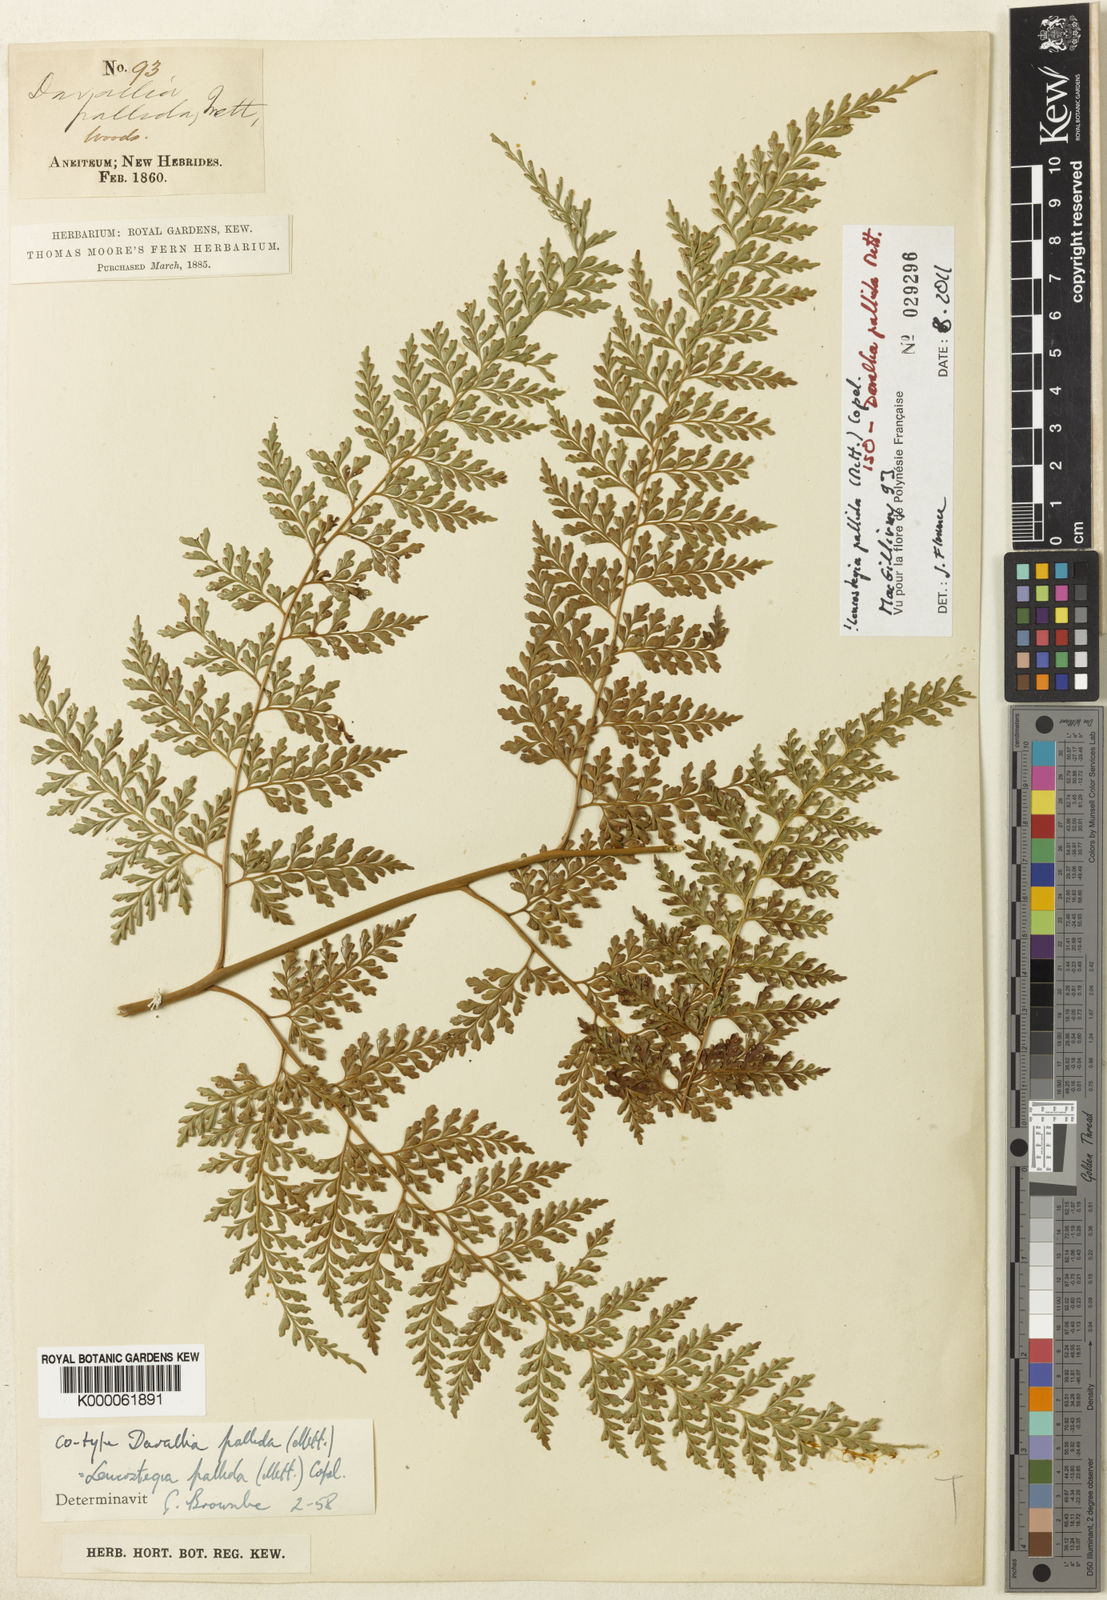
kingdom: Plantae
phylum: Tracheophyta
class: Polypodiopsida
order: Polypodiales
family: Hypodematiaceae
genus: Leucostegia
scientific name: Leucostegia pallida
